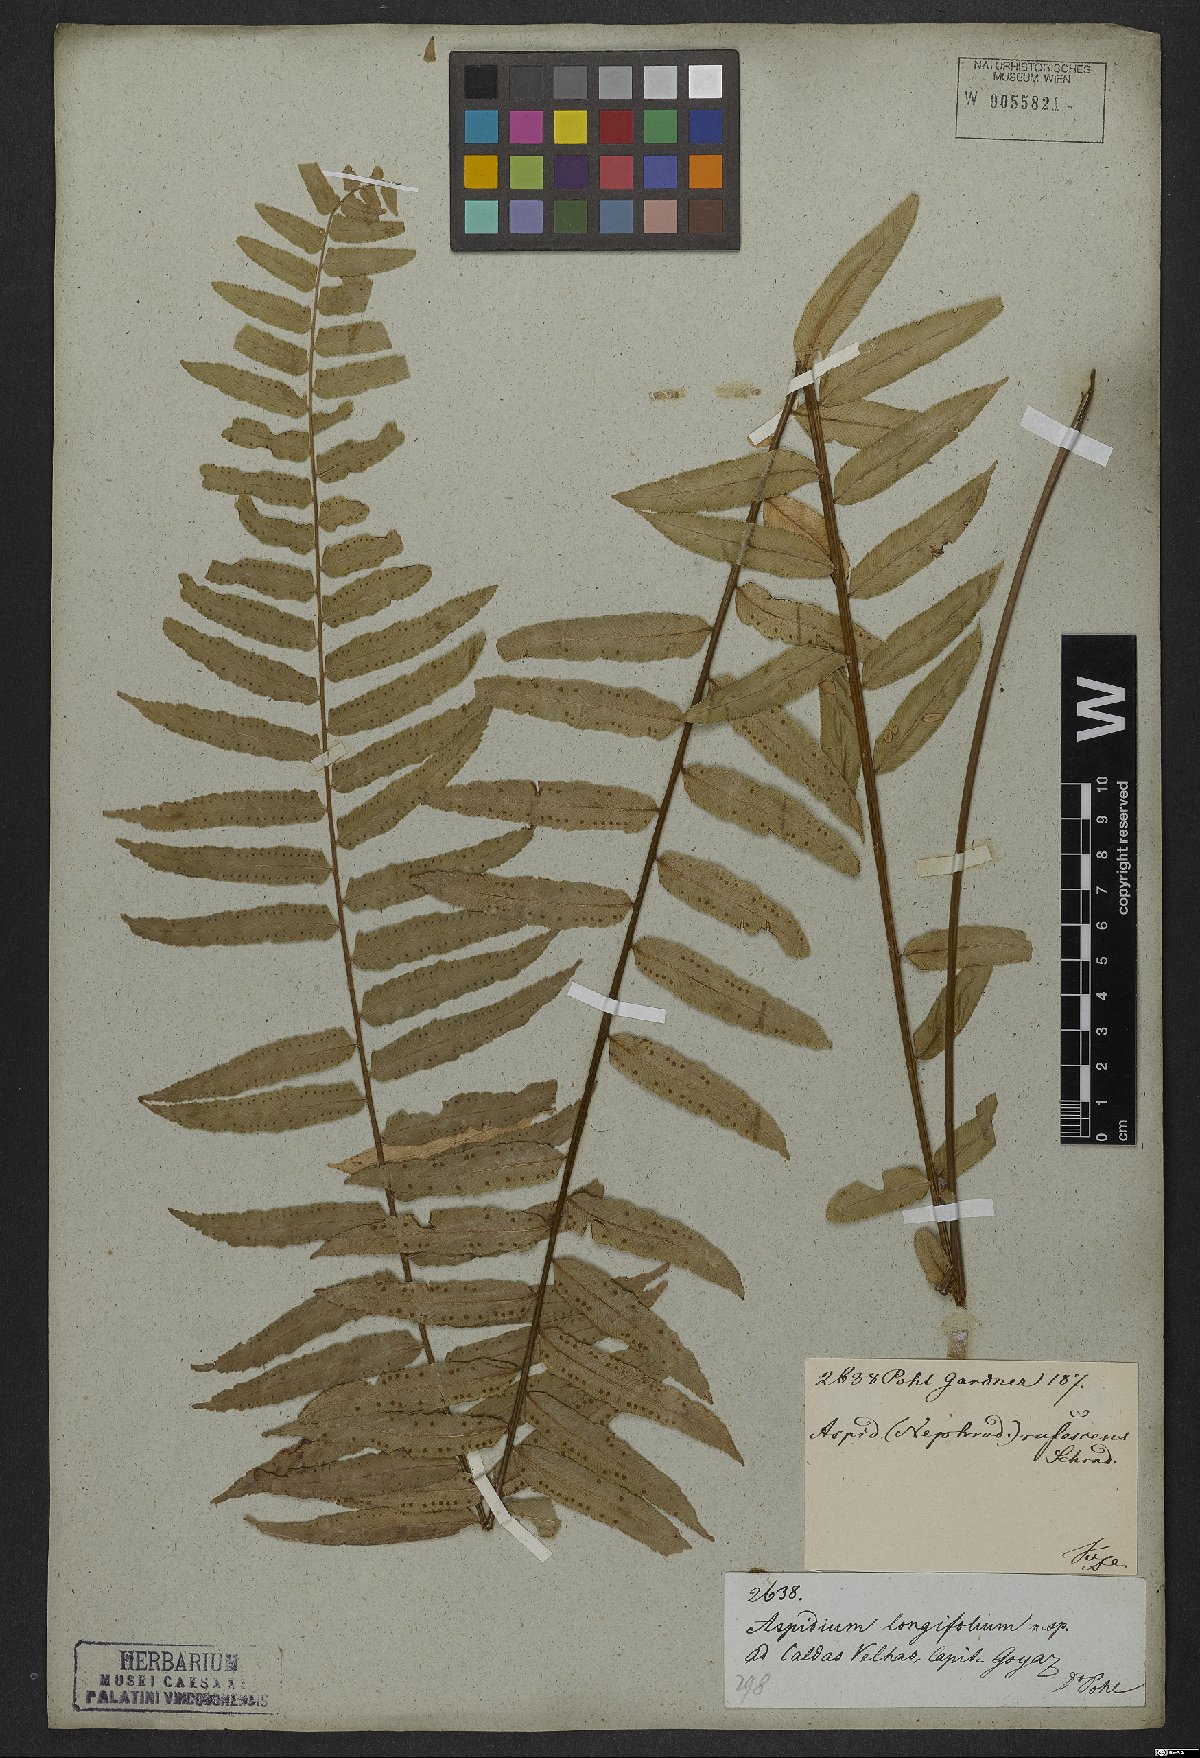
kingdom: Plantae
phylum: Tracheophyta
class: Polypodiopsida
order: Polypodiales
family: Nephrolepidaceae
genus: Nephrolepis
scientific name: Nephrolepis biserrata
